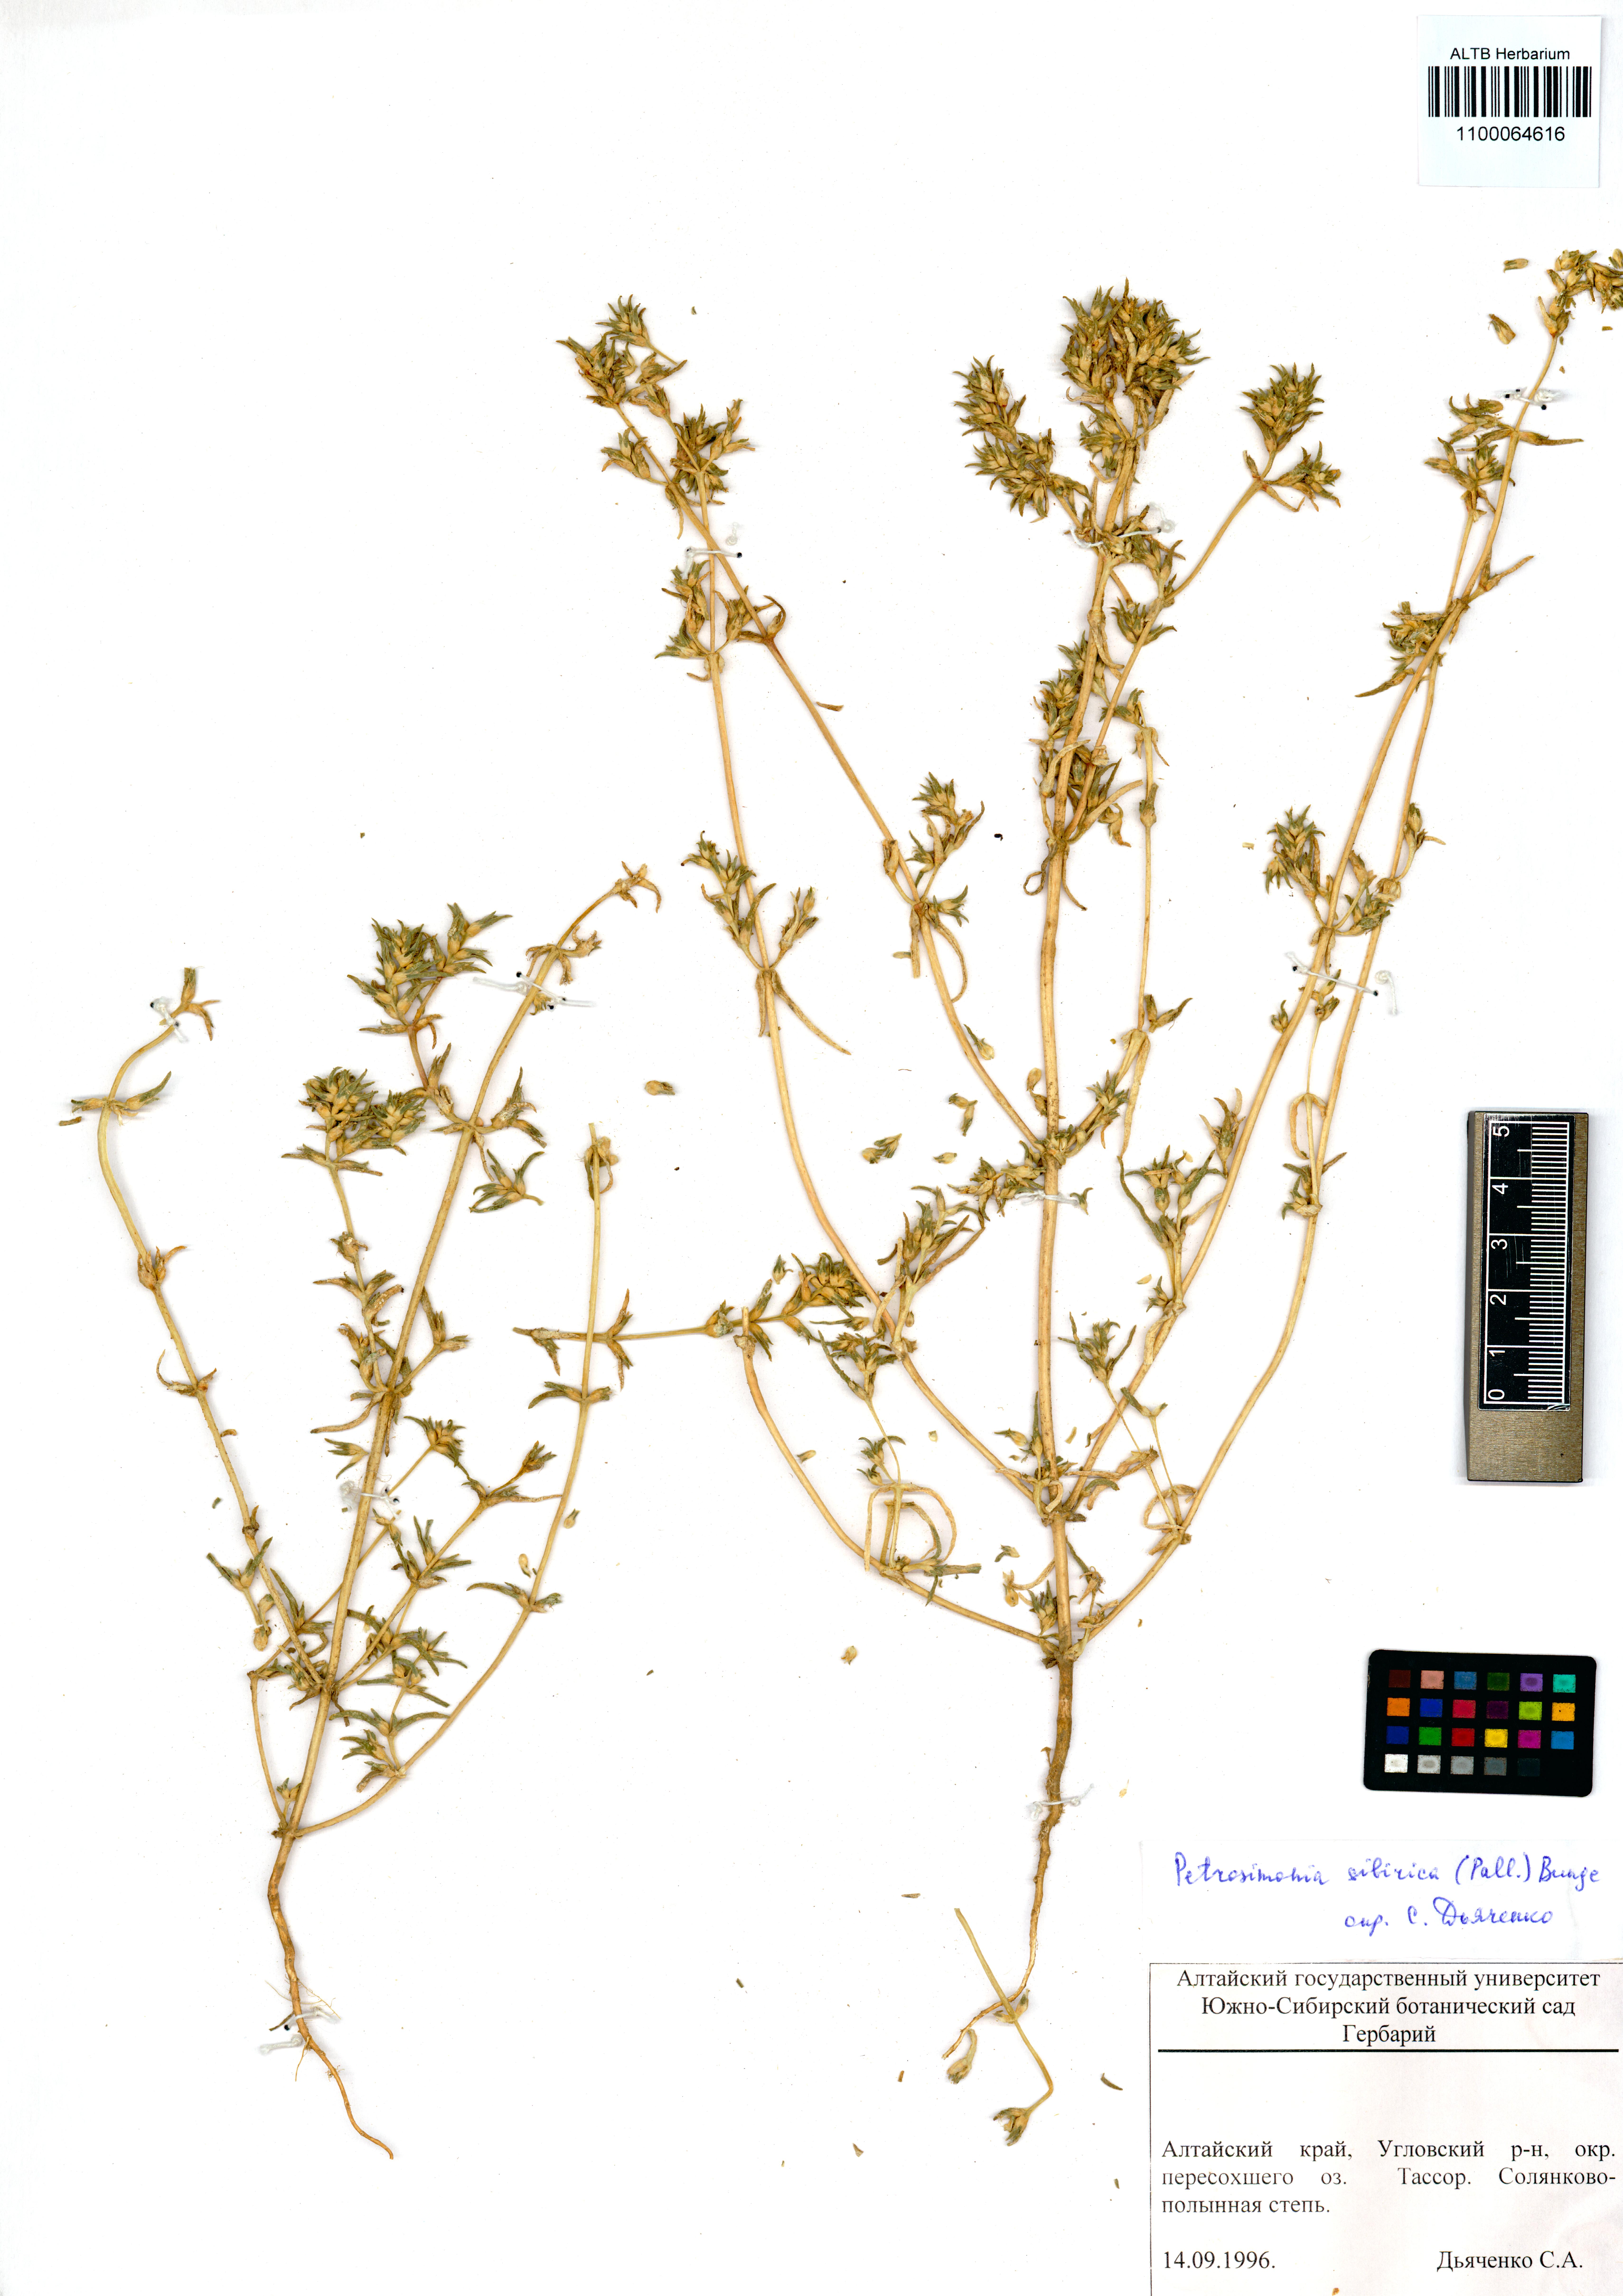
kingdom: Plantae
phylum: Tracheophyta
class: Magnoliopsida
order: Caryophyllales
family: Amaranthaceae
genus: Petrosimonia
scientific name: Petrosimonia sibirica
